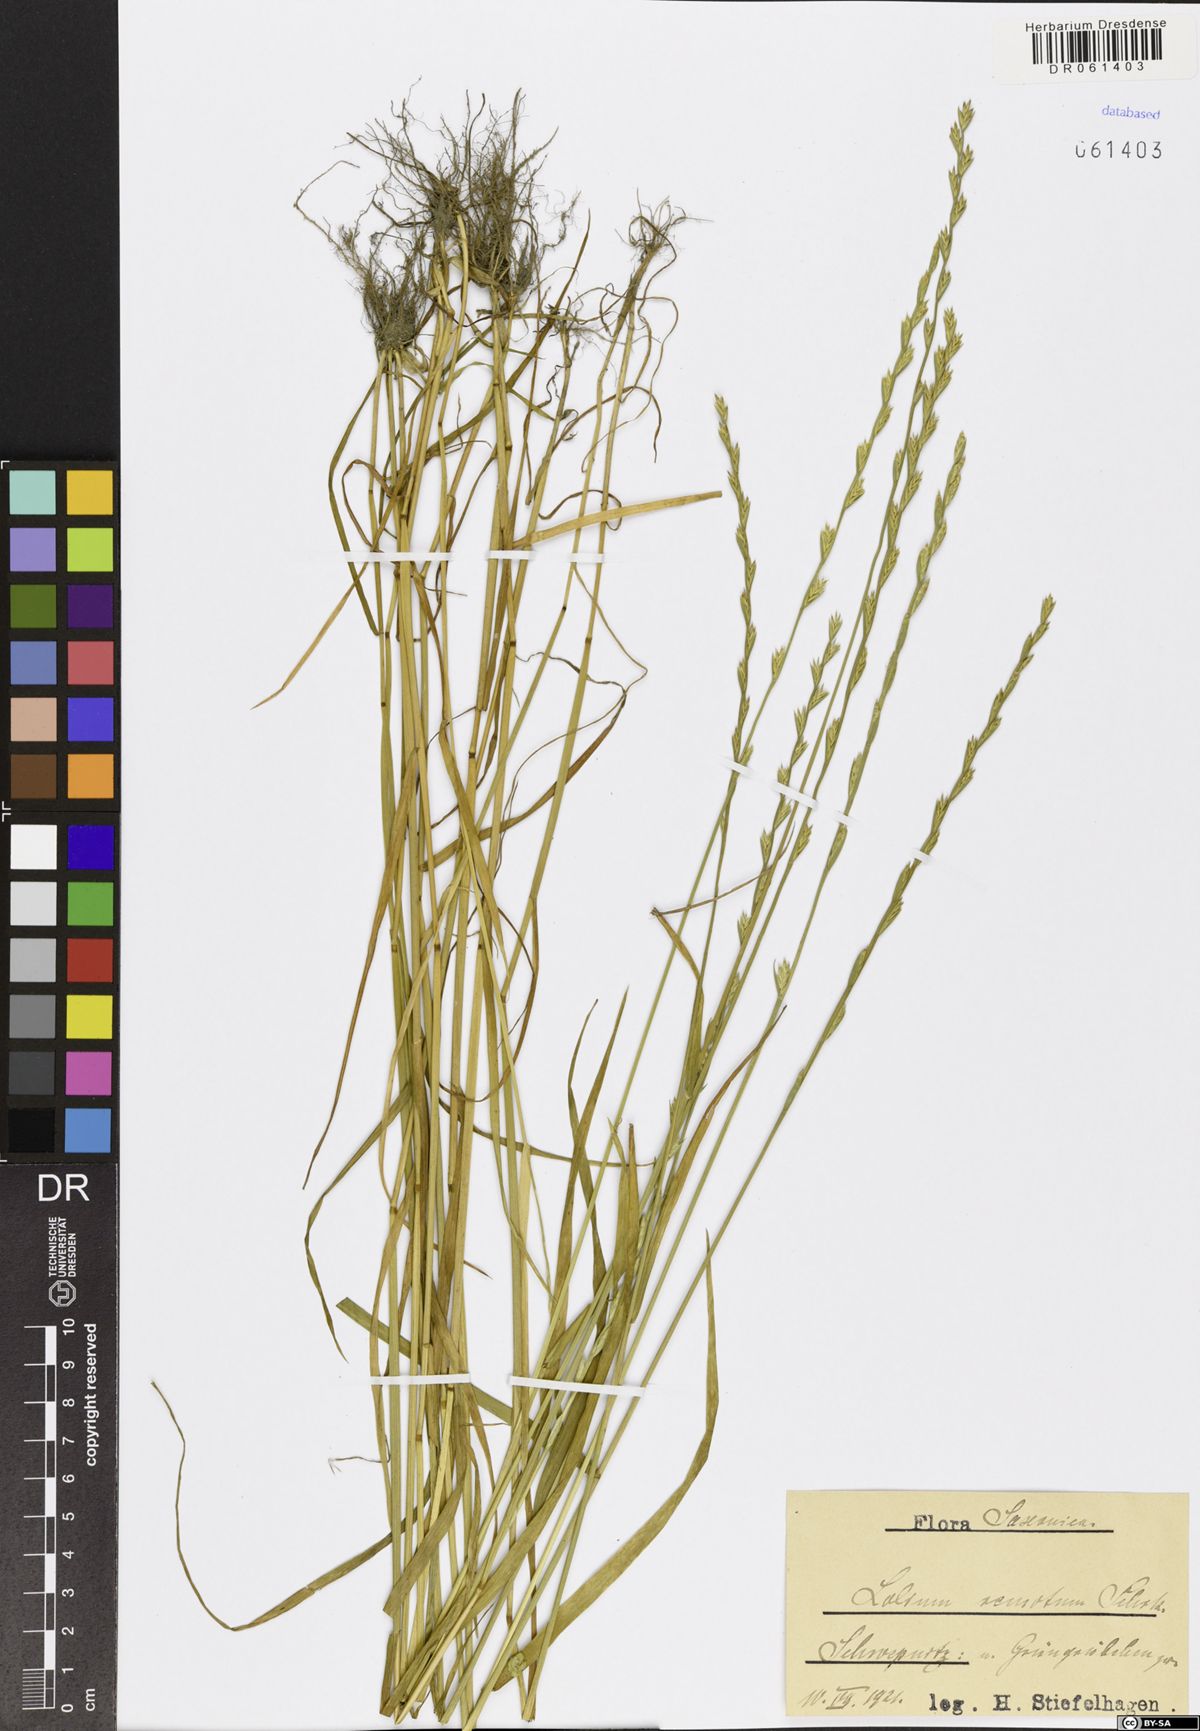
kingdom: Plantae
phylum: Tracheophyta
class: Liliopsida
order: Poales
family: Poaceae
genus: Lolium
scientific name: Lolium remotum
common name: Flaxfield rye-grass
